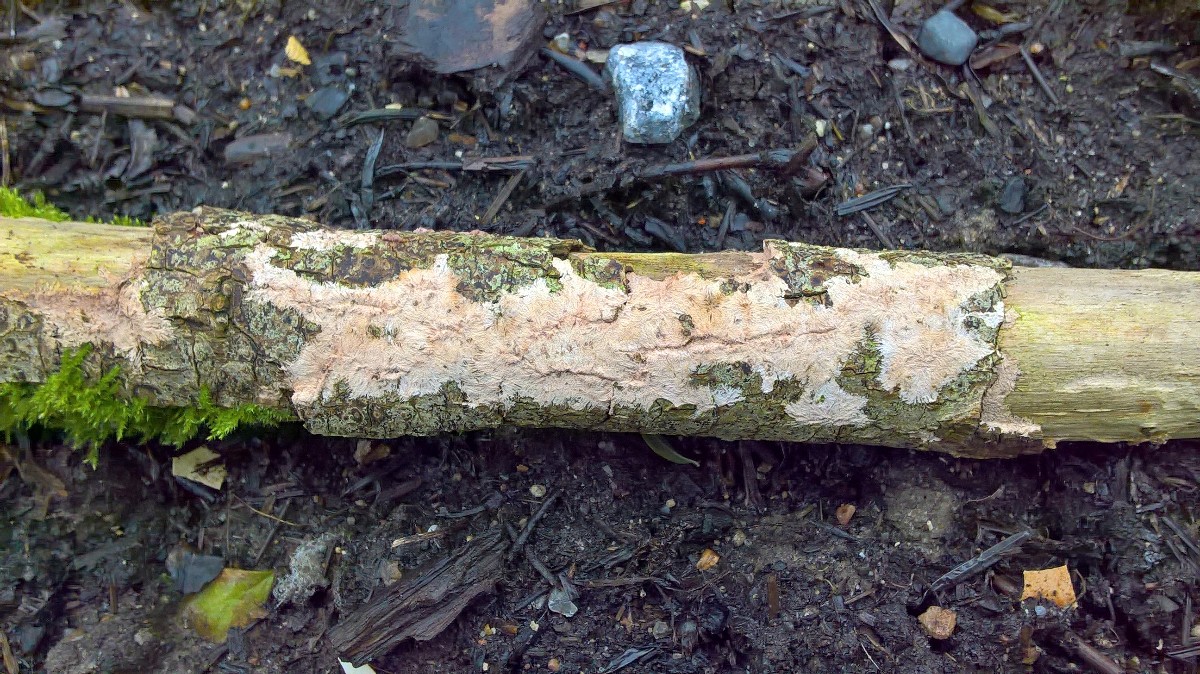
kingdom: Fungi
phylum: Basidiomycota
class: Agaricomycetes
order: Polyporales
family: Steccherinaceae
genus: Steccherinum
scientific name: Steccherinum fimbriatum
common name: trådet skønpig
